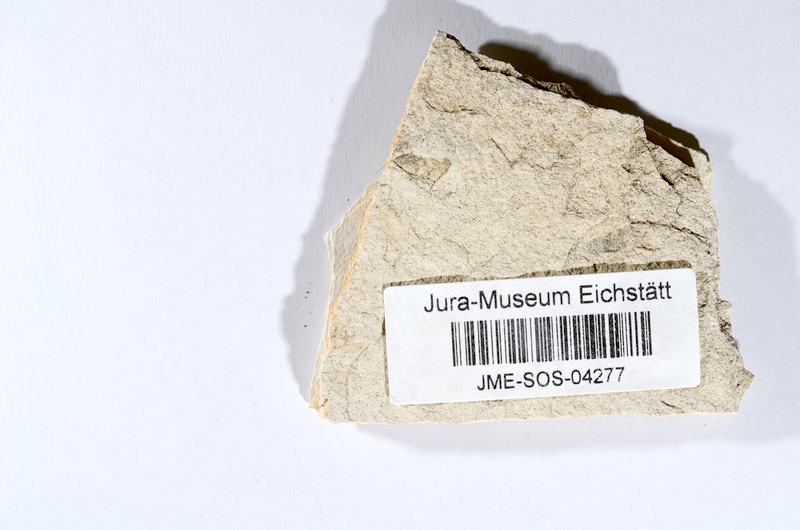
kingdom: Animalia
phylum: Chordata
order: Salmoniformes
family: Orthogonikleithridae
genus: Orthogonikleithrus
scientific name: Orthogonikleithrus hoelli
